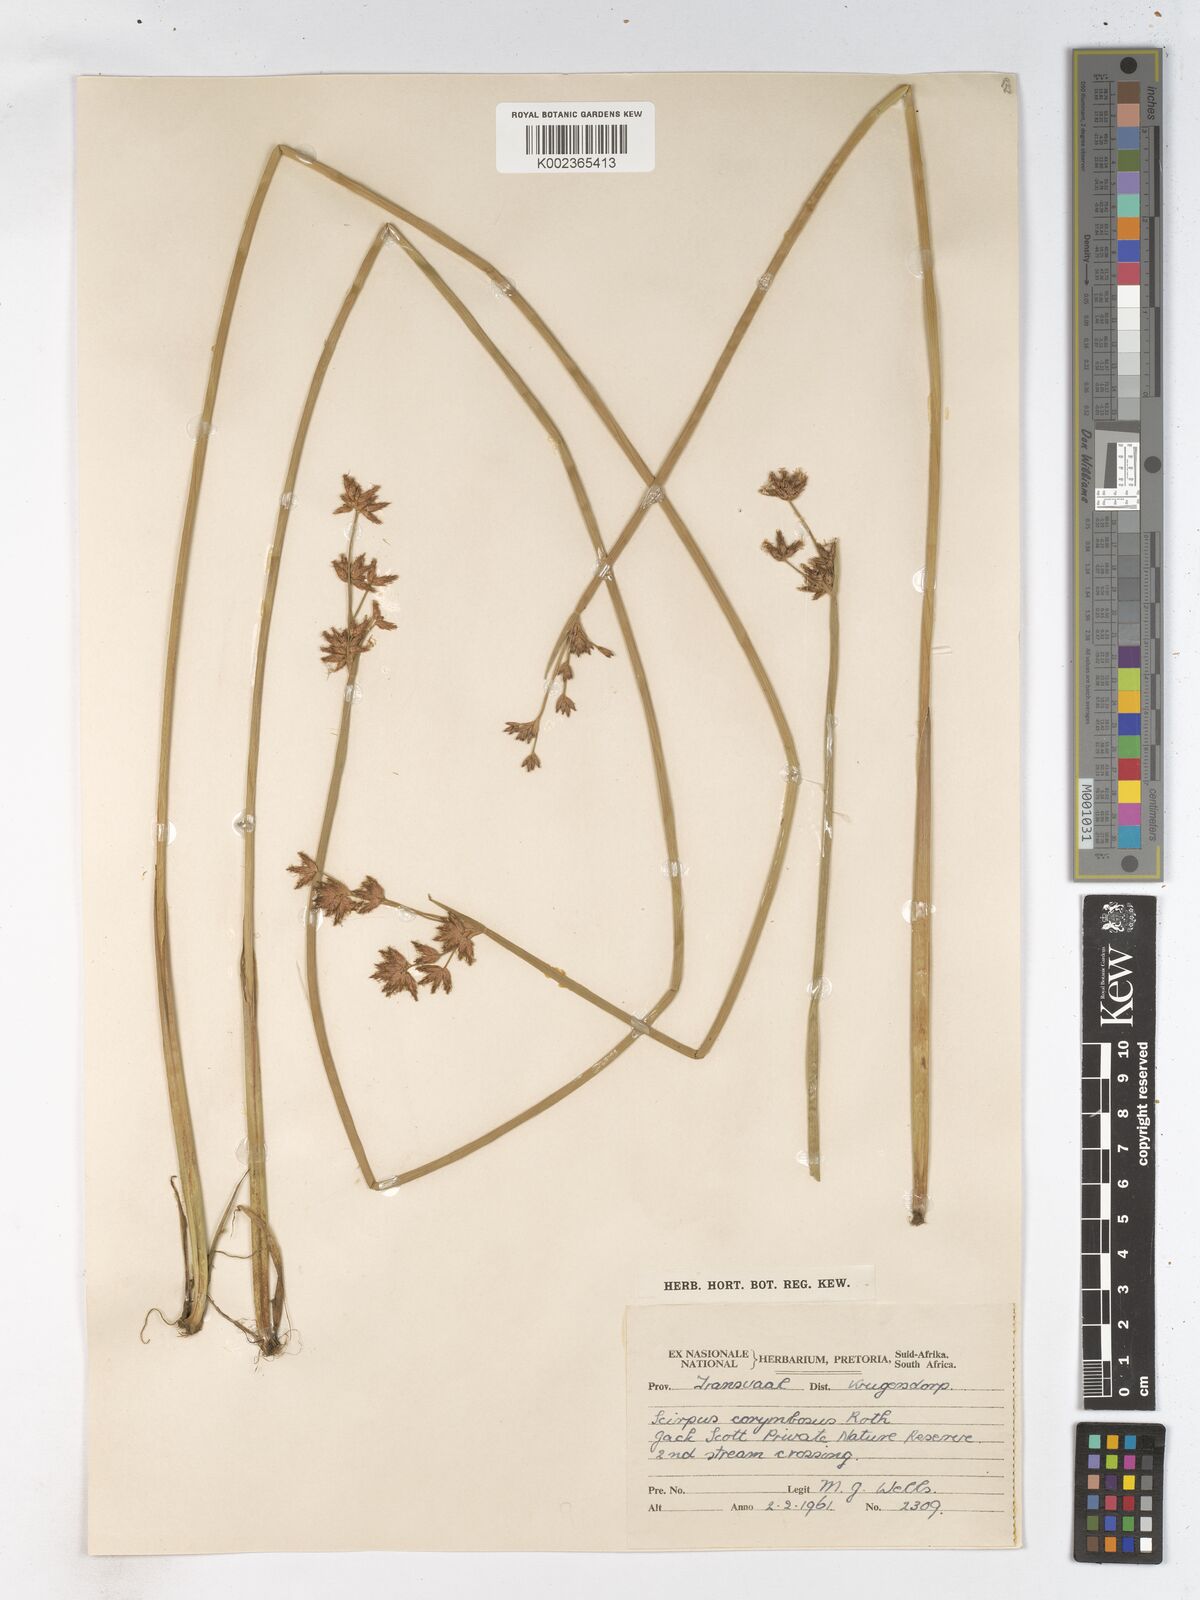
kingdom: Plantae
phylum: Tracheophyta
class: Liliopsida
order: Poales
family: Cyperaceae
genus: Schoenoplectiella
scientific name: Schoenoplectiella brachyceras
